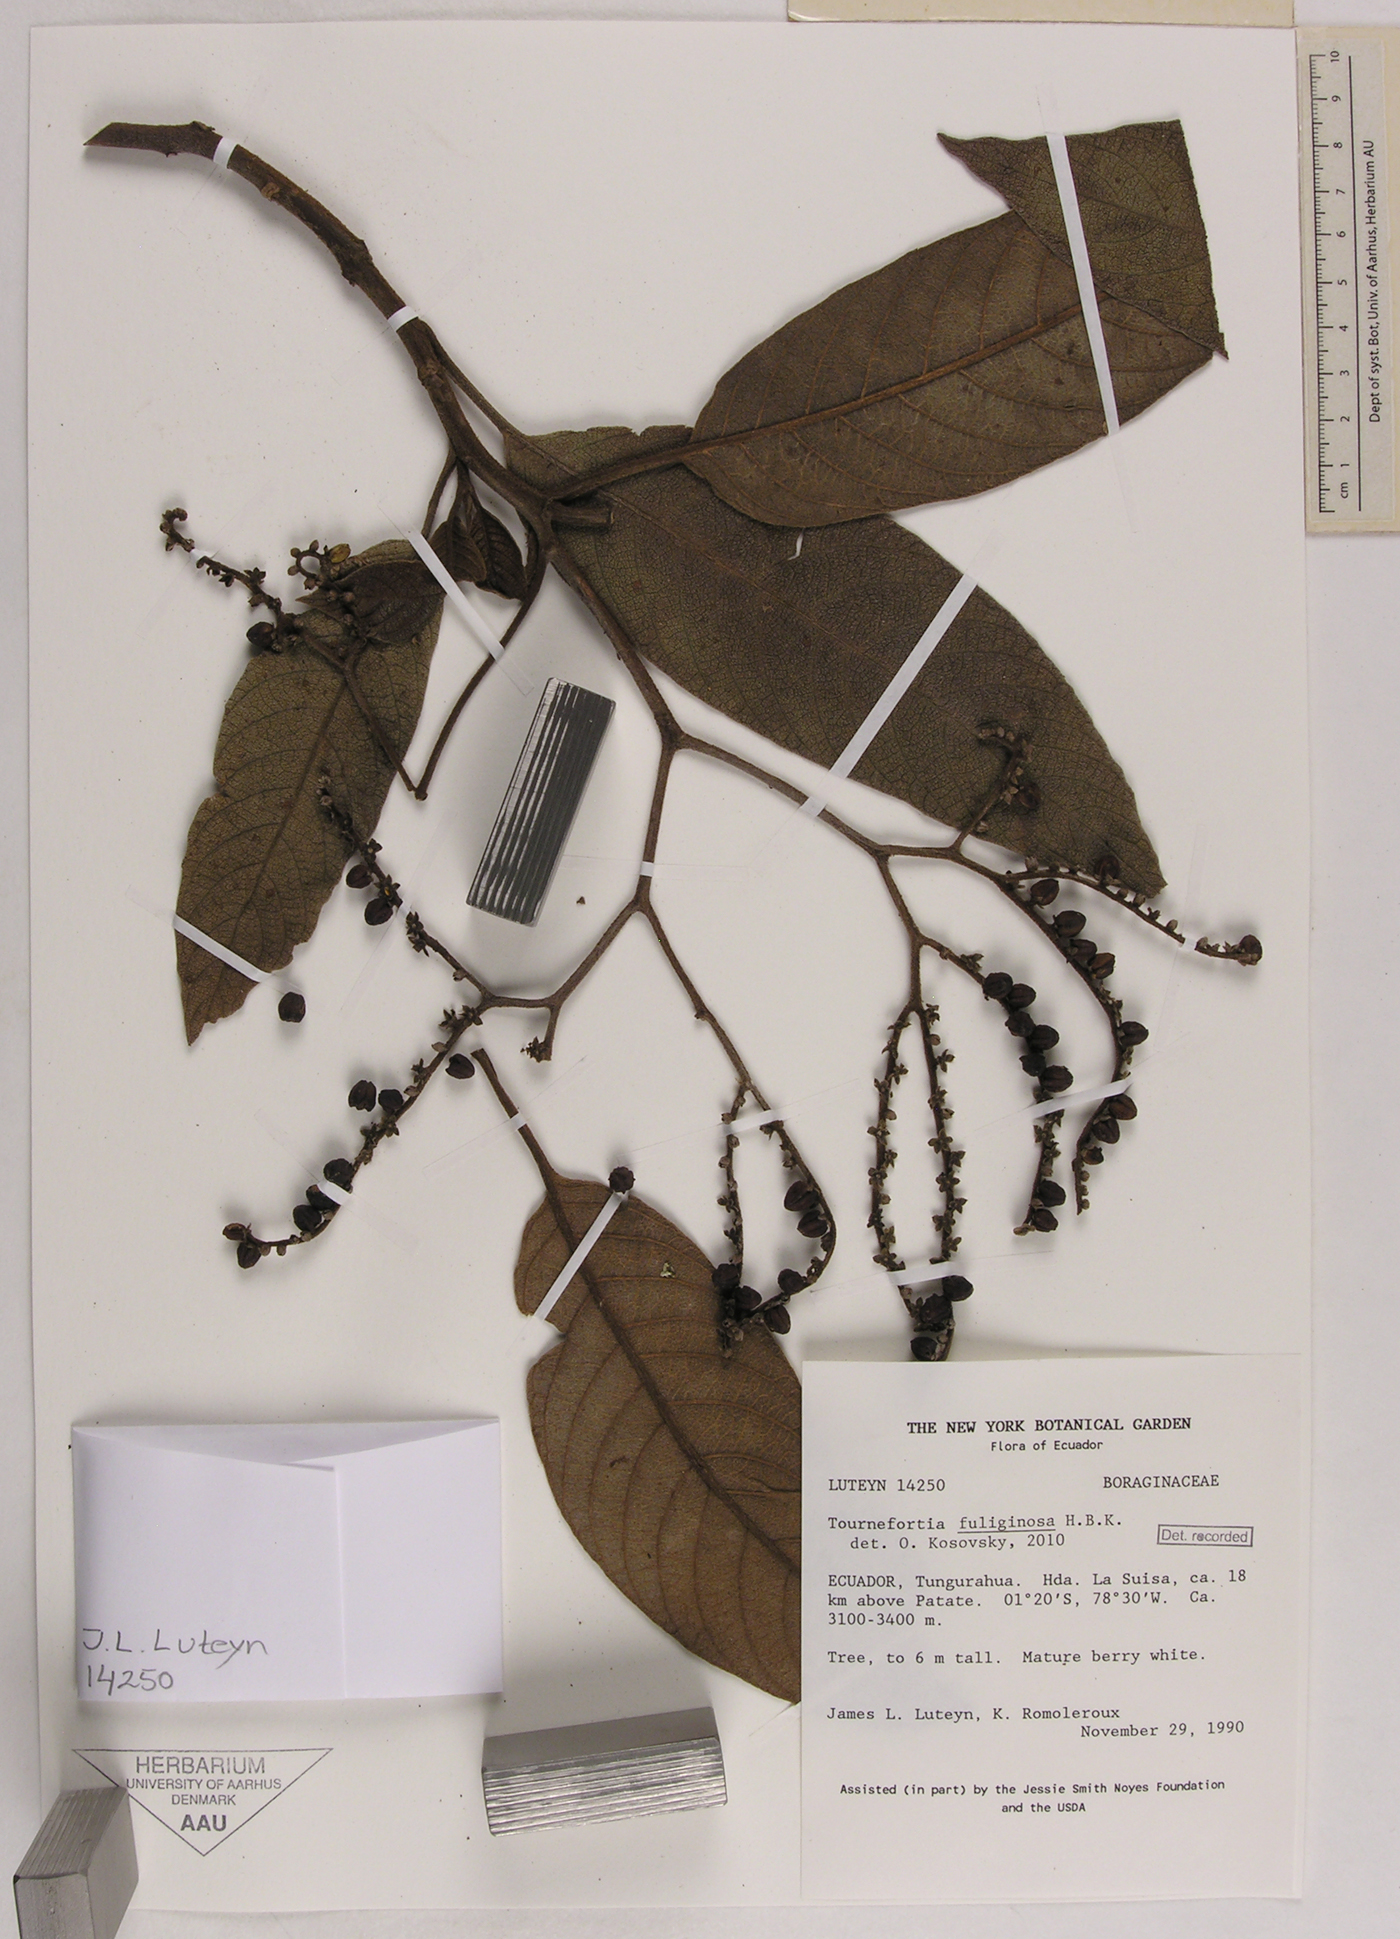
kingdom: Plantae
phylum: Tracheophyta
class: Magnoliopsida
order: Boraginales
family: Heliotropiaceae
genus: Heliotropium
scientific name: Heliotropium fuliginosum
